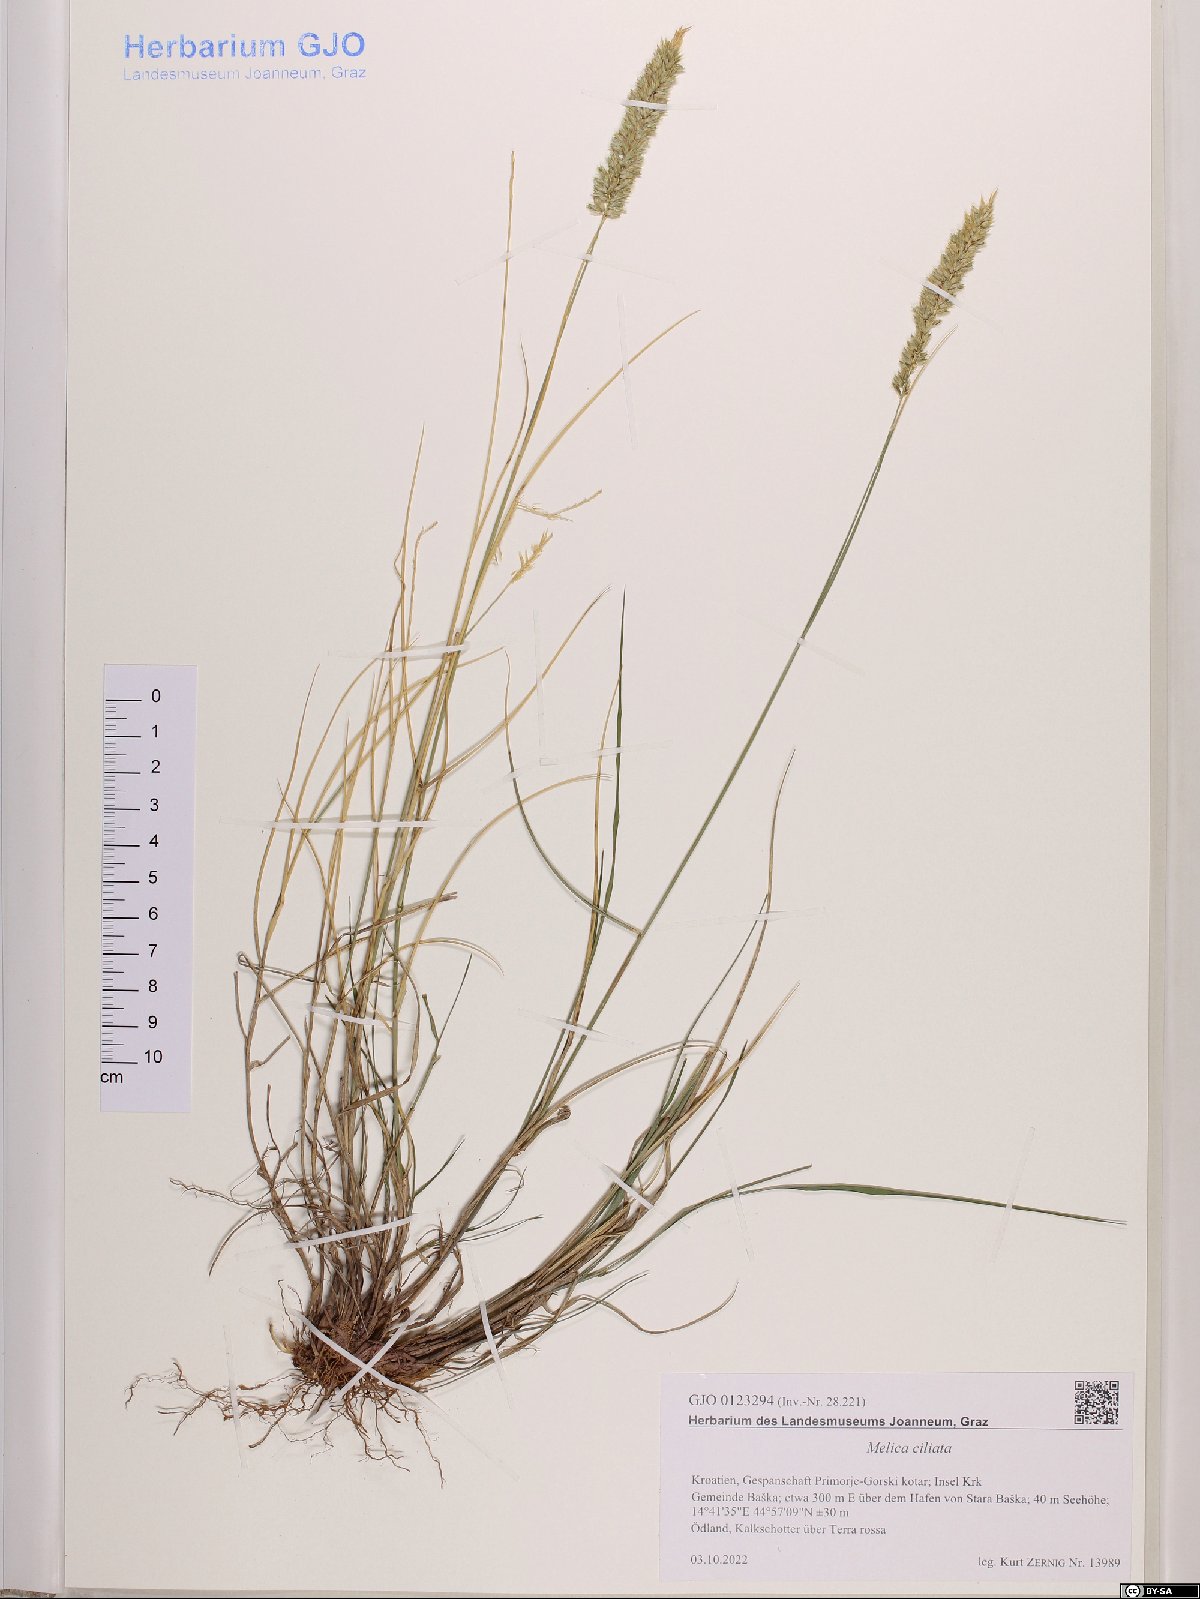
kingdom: Plantae
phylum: Tracheophyta
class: Liliopsida
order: Poales
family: Poaceae
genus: Melica
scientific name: Melica ciliata
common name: Hairy melicgrass
